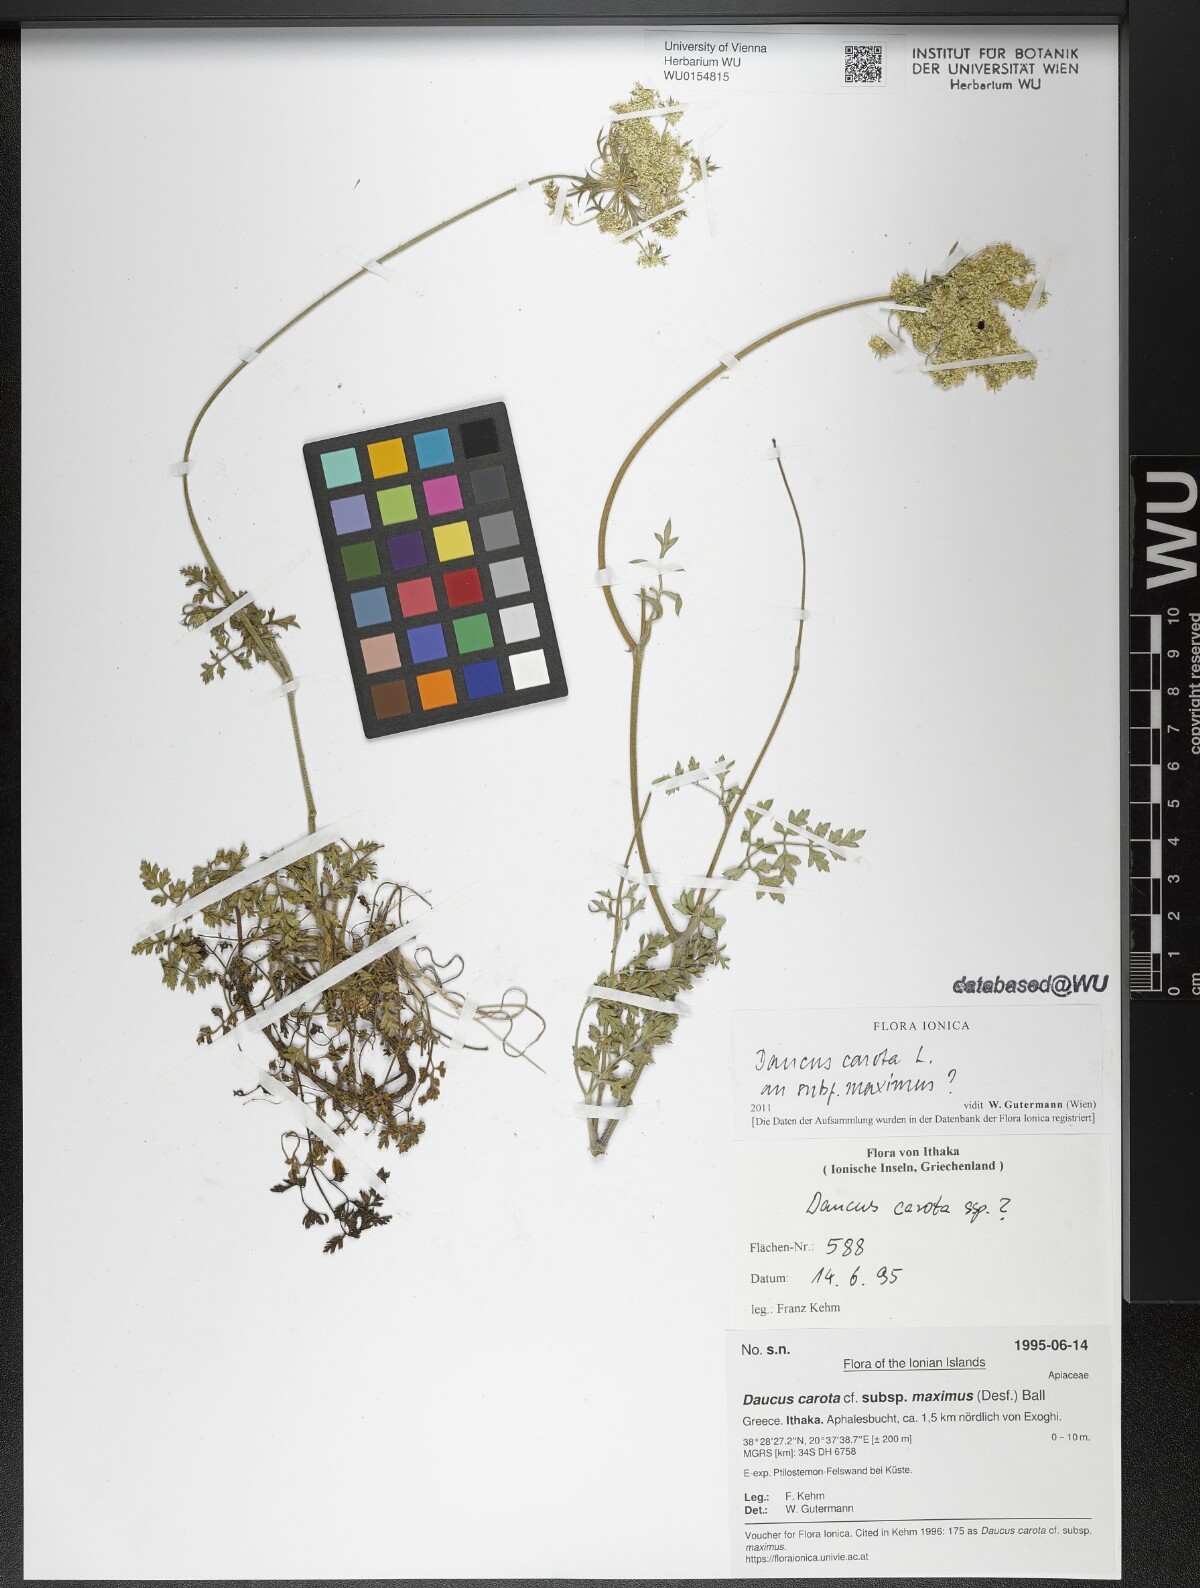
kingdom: Plantae
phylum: Tracheophyta
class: Magnoliopsida
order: Apiales
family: Apiaceae
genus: Daucus
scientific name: Daucus carota
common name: Wild carrot
